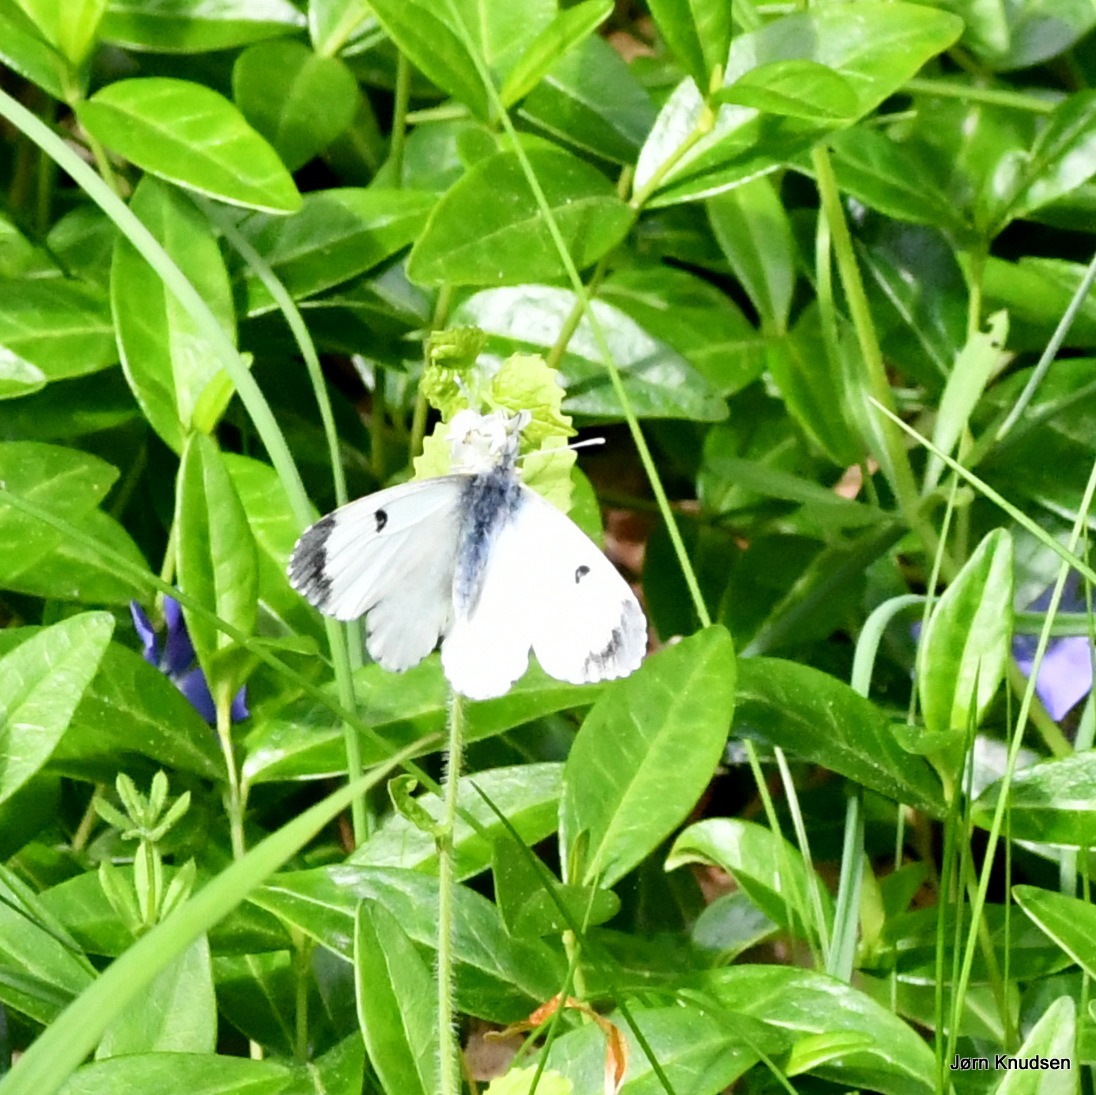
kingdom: Animalia
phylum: Arthropoda
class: Insecta
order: Lepidoptera
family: Pieridae
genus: Anthocharis
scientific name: Anthocharis cardamines
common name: Aurora
